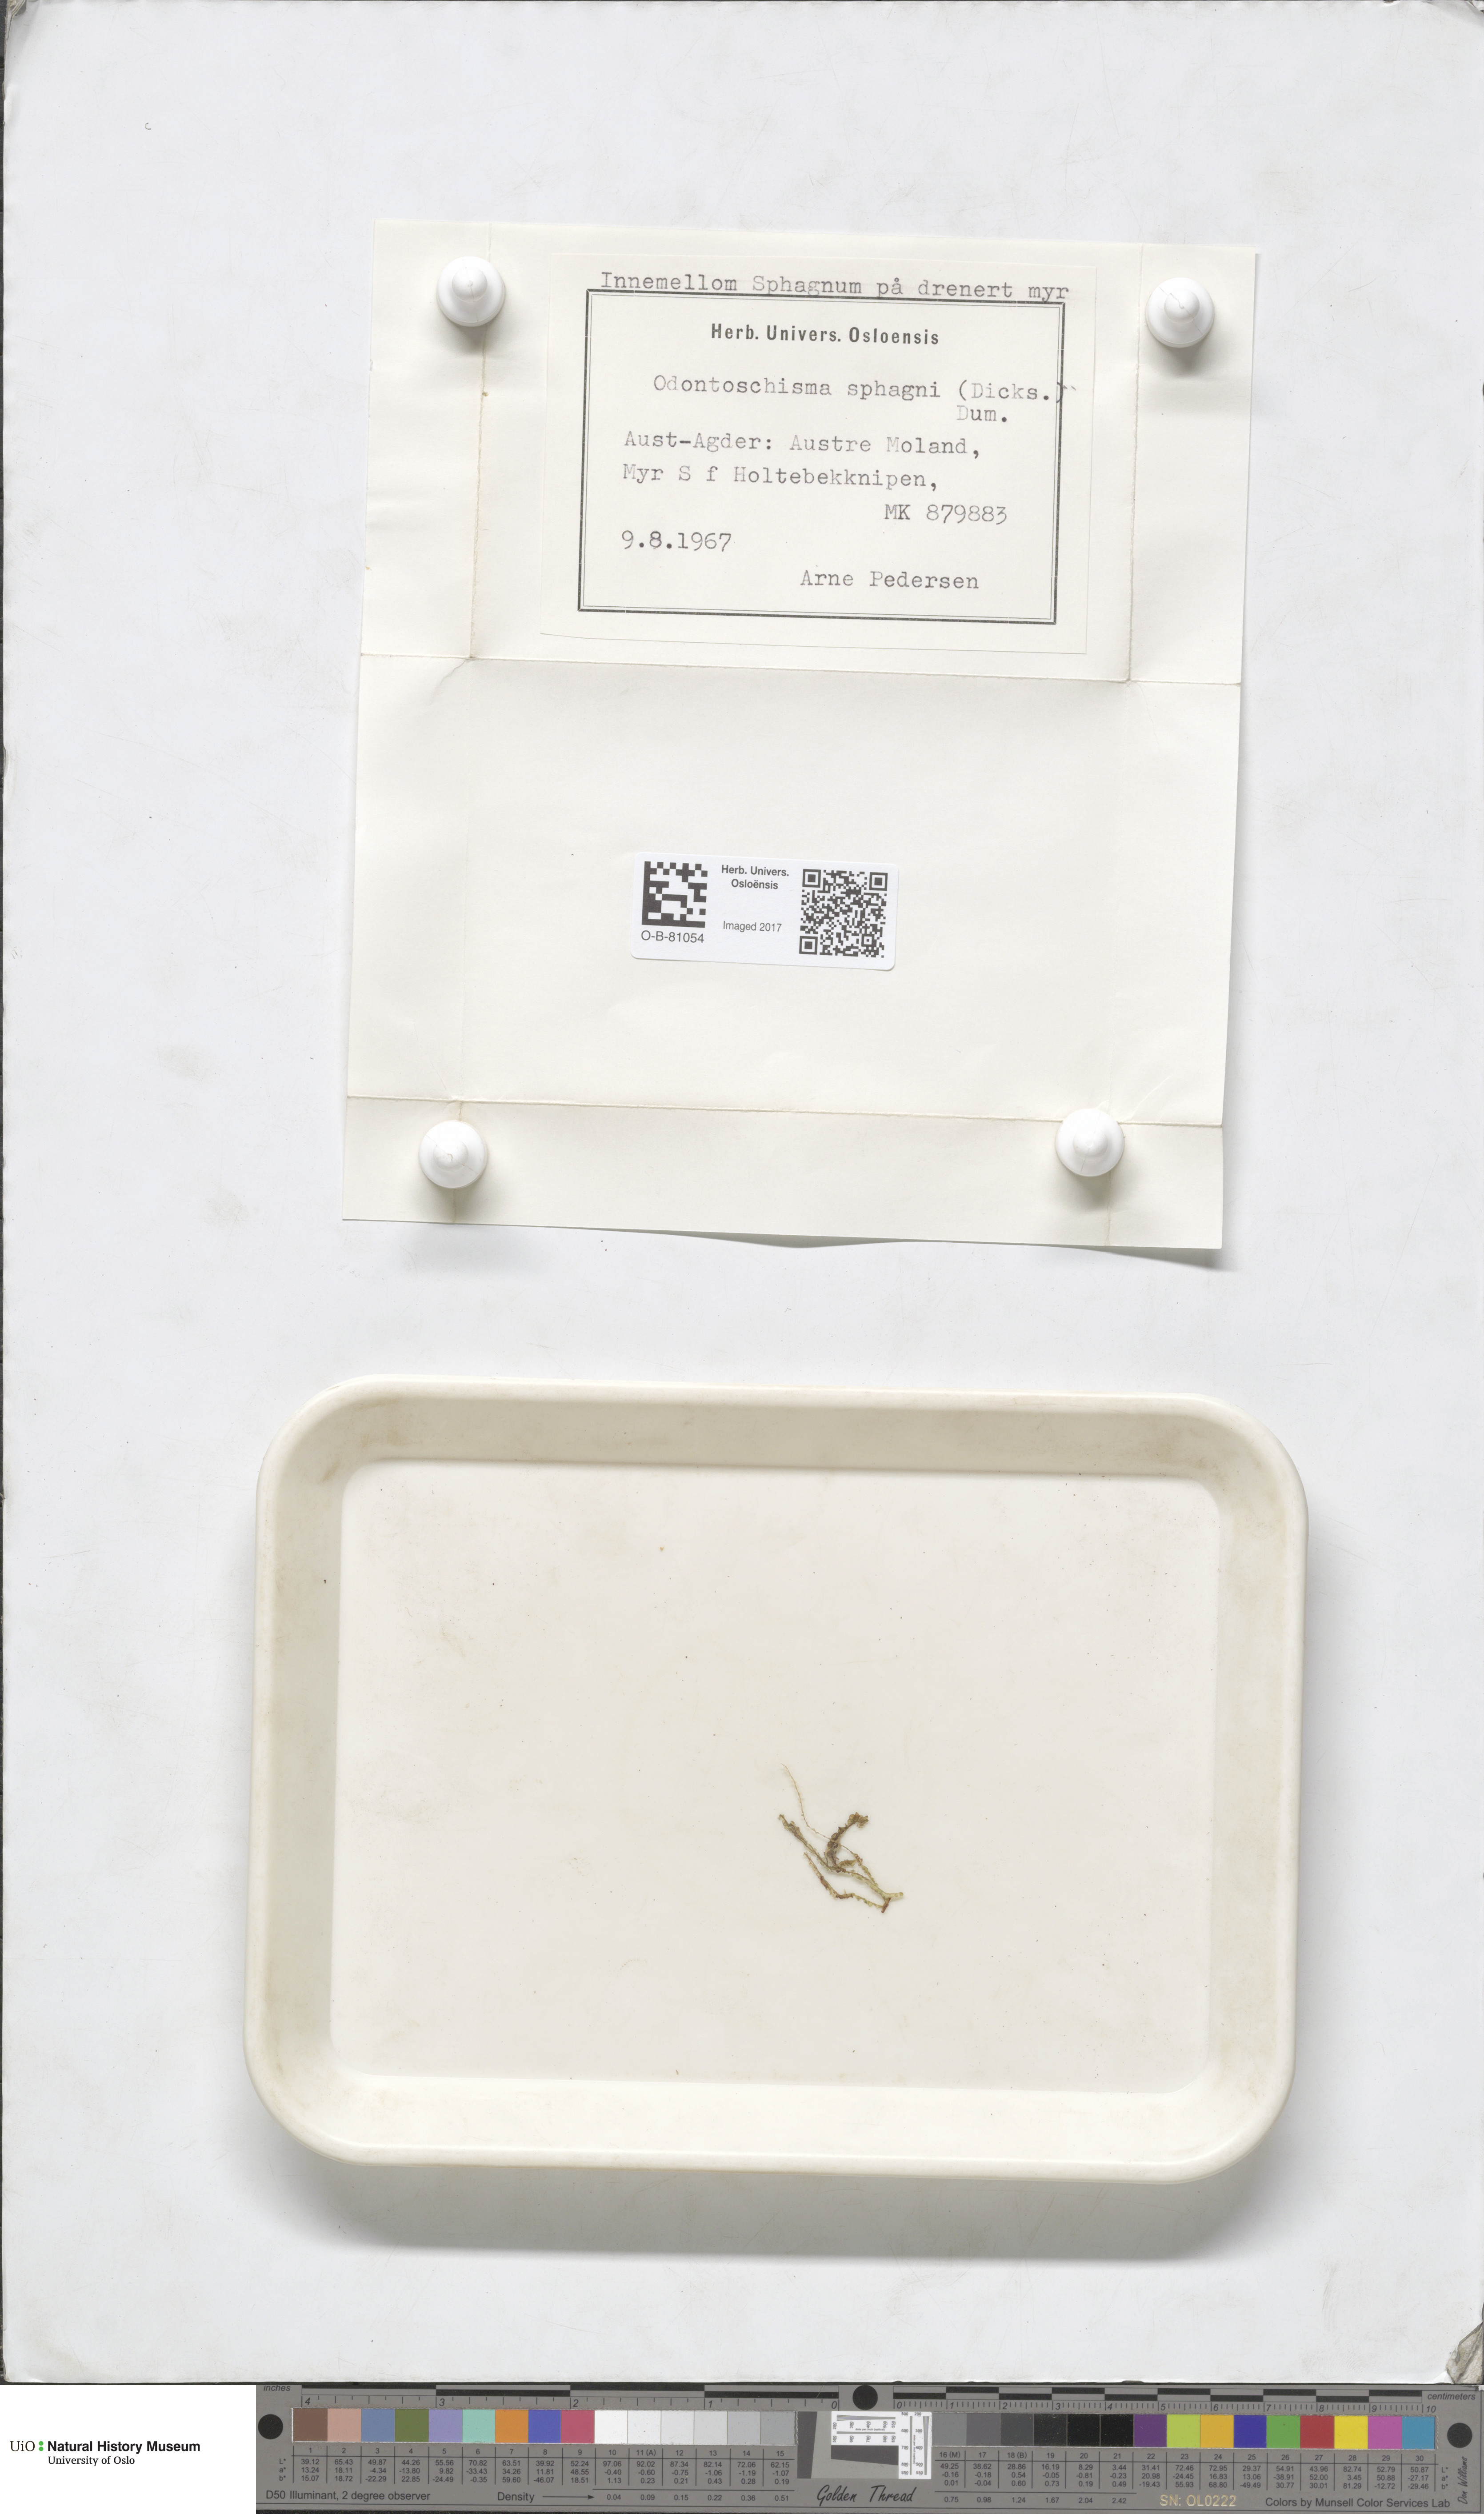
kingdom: Plantae
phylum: Marchantiophyta
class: Jungermanniopsida
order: Jungermanniales
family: Cephaloziaceae
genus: Odontoschisma
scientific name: Odontoschisma sphagni
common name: Bog-moss flapwort
